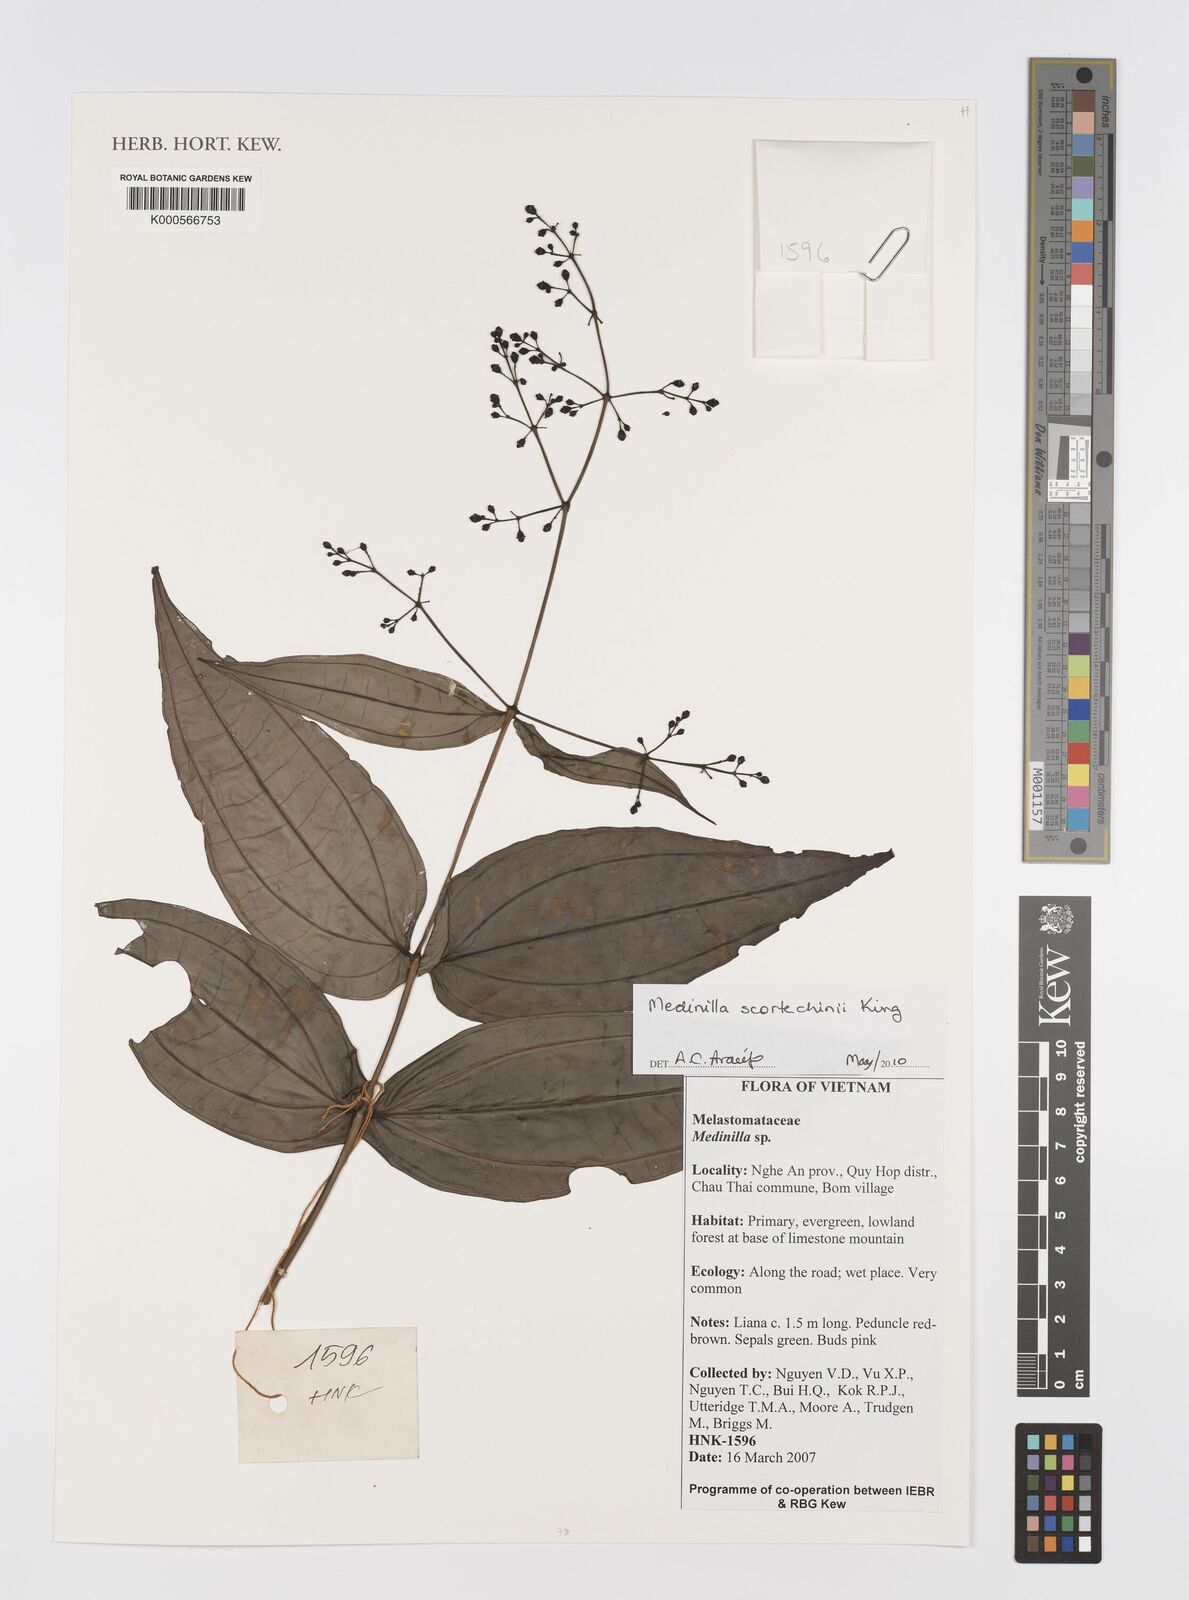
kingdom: Plantae
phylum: Tracheophyta
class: Magnoliopsida
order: Myrtales
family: Melastomataceae
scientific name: Melastomataceae
